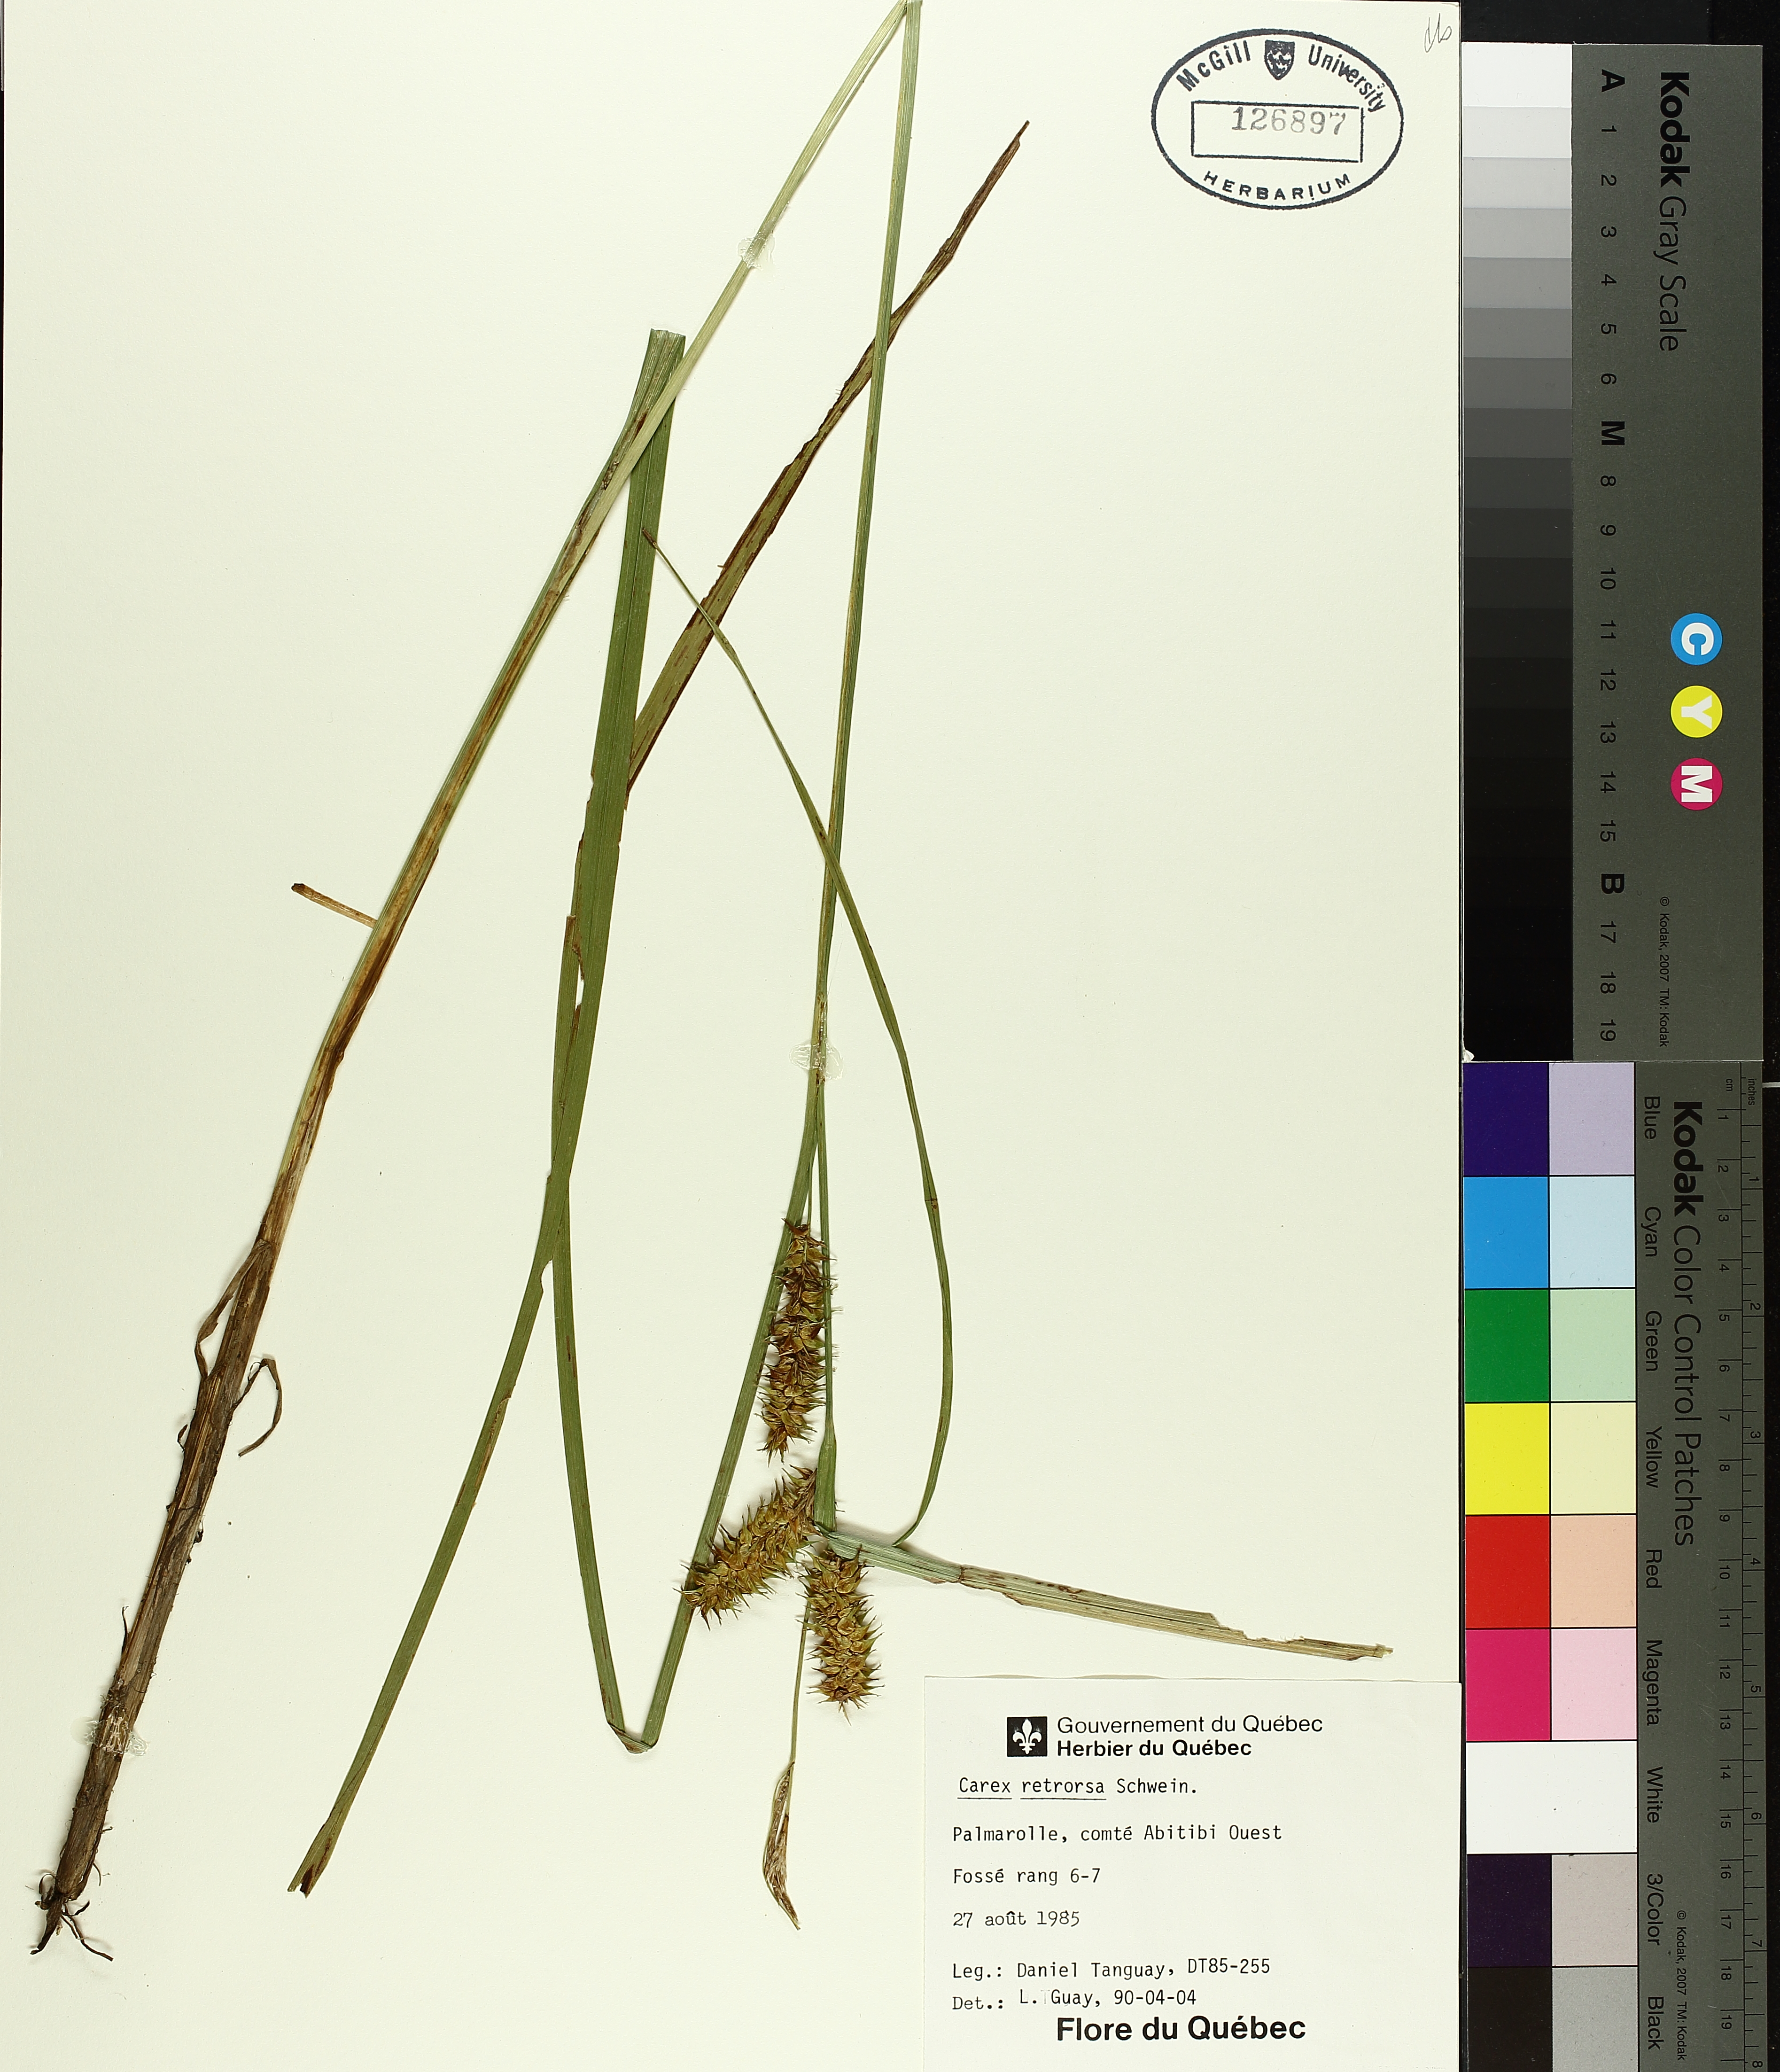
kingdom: Plantae
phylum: Tracheophyta
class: Liliopsida
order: Poales
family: Cyperaceae
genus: Carex
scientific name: Carex retrorsa
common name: Knot-sheath sedge
